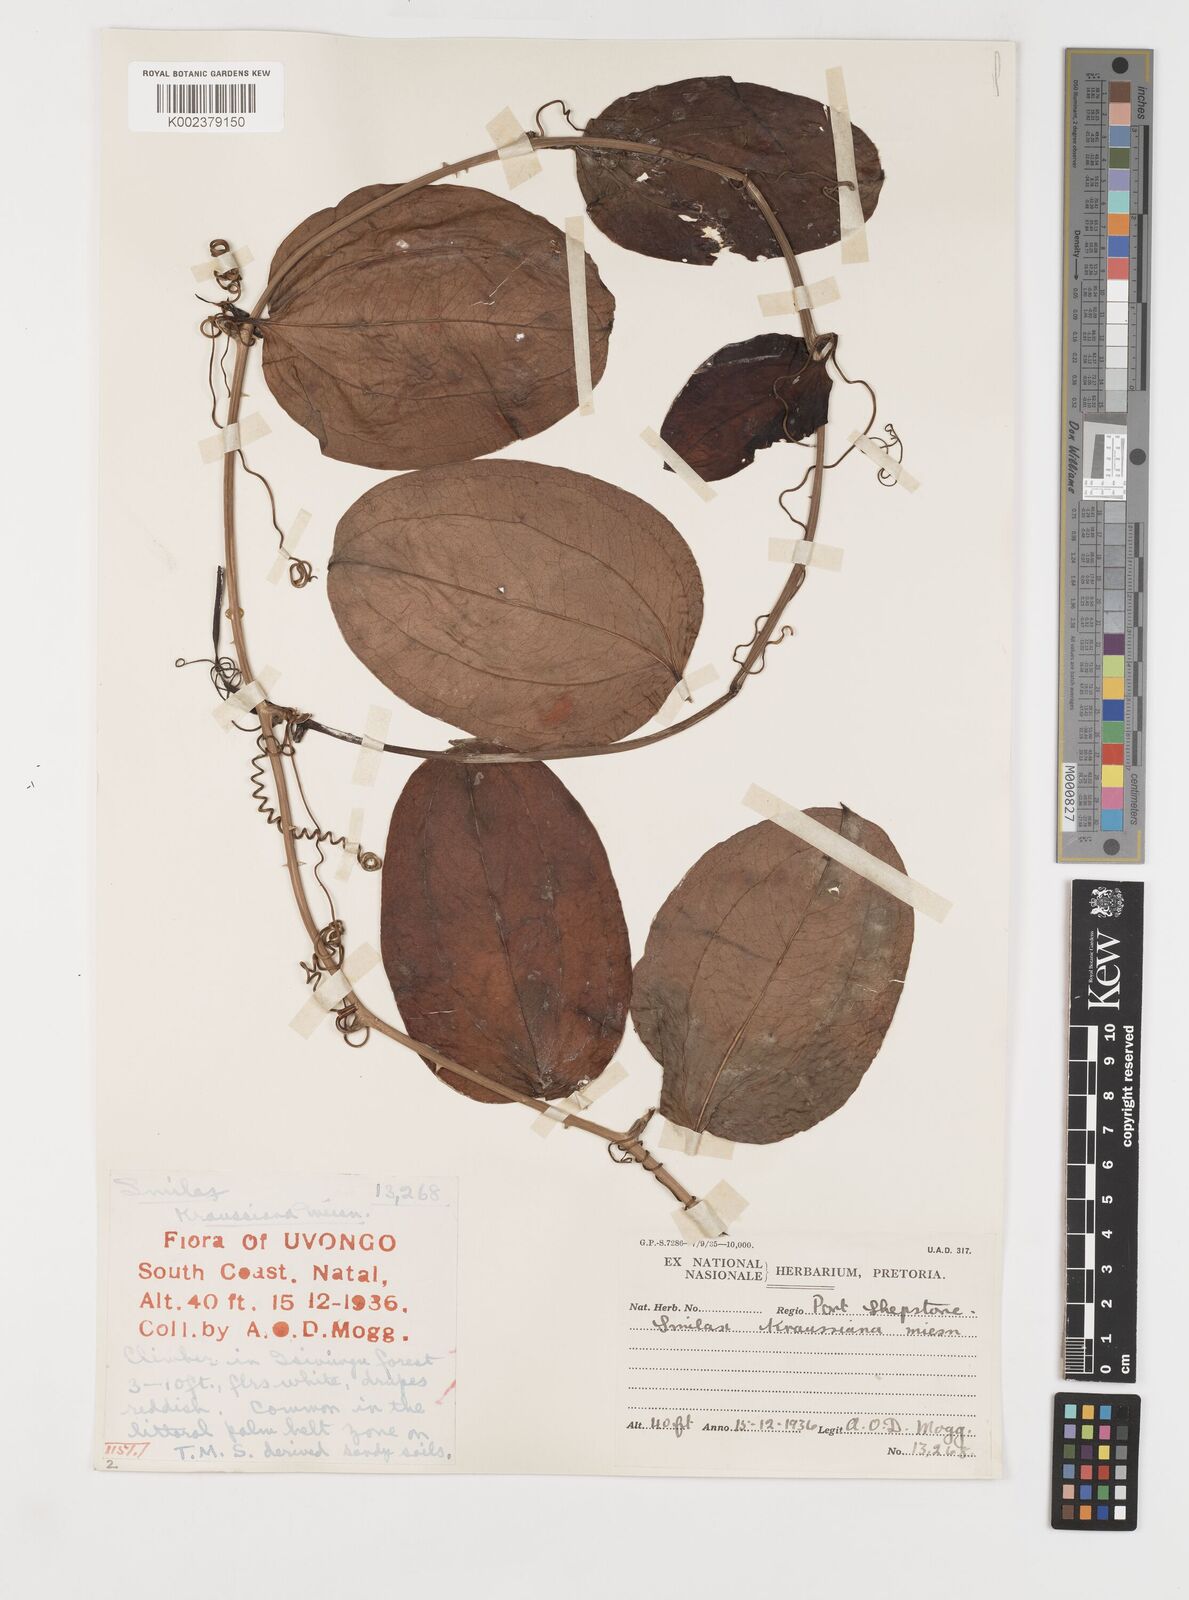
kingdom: Plantae
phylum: Tracheophyta
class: Liliopsida
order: Liliales
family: Smilacaceae
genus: Smilax
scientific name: Smilax anceps
